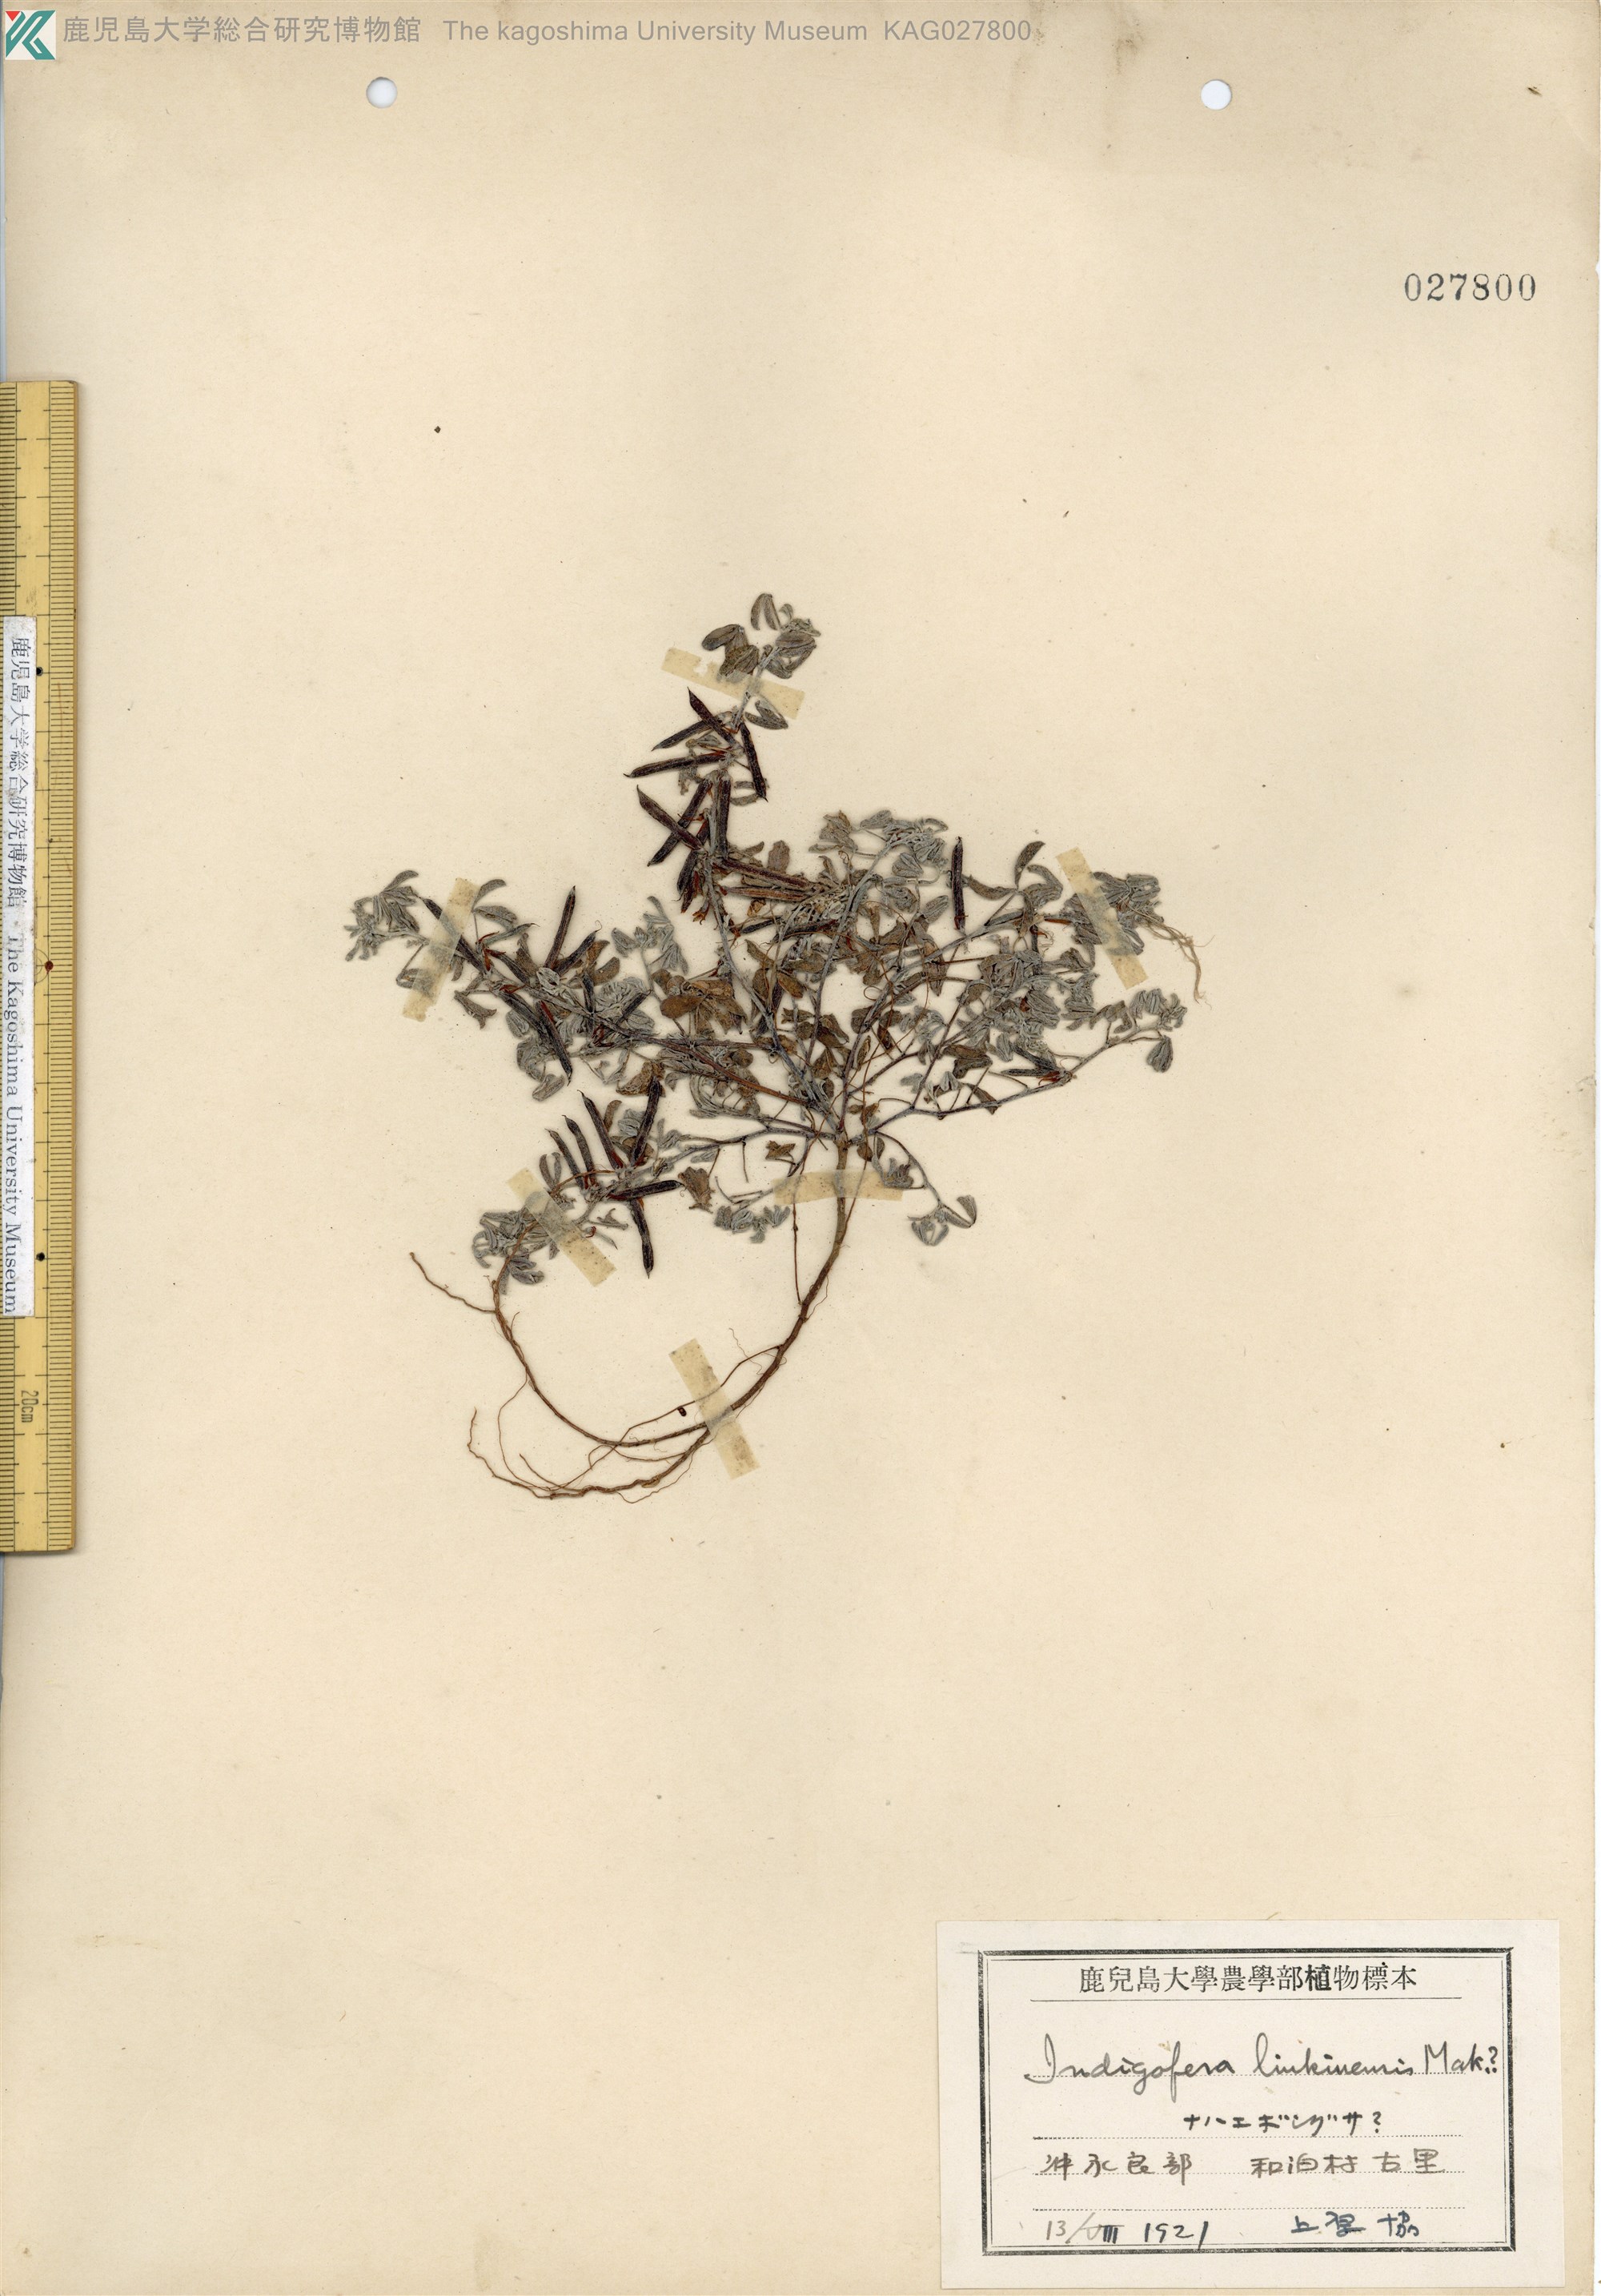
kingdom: Plantae
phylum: Tracheophyta
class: Magnoliopsida
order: Fabales
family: Fabaceae
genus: Indigofera
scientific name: Indigofera trifoliata
